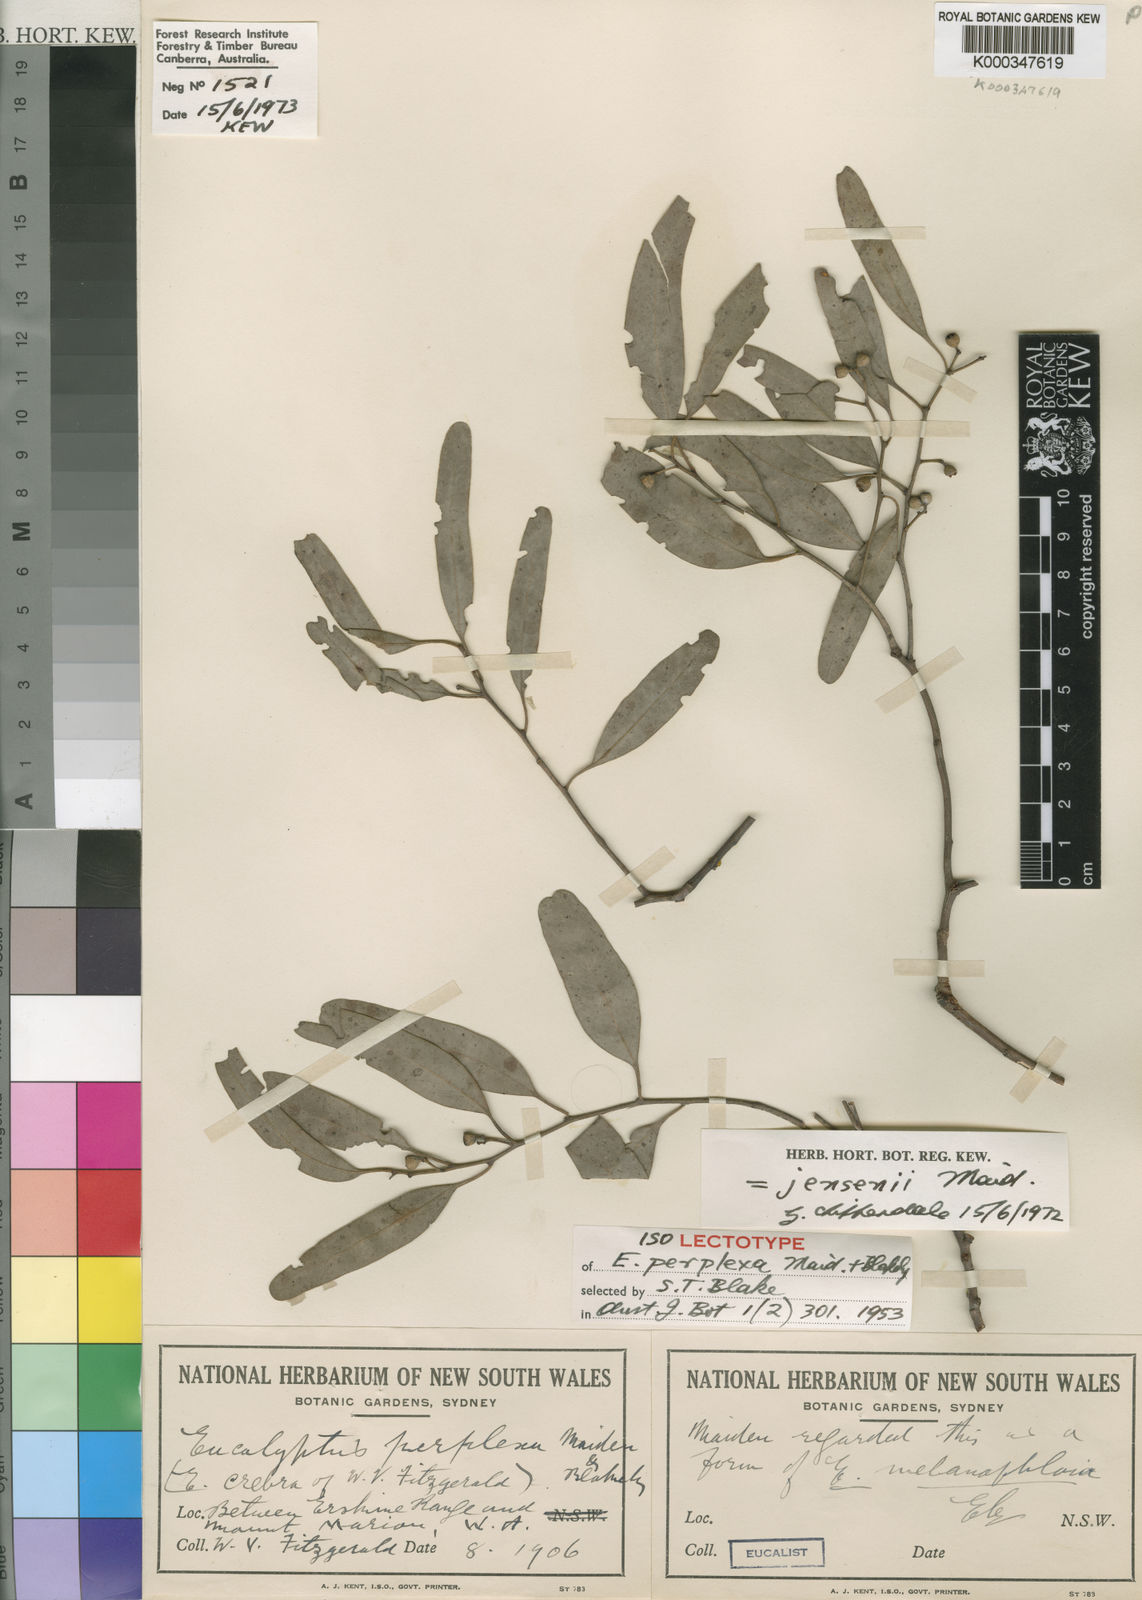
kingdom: Plantae
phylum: Tracheophyta
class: Magnoliopsida
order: Myrtales
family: Myrtaceae
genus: Eucalyptus
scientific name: Eucalyptus jensenii
